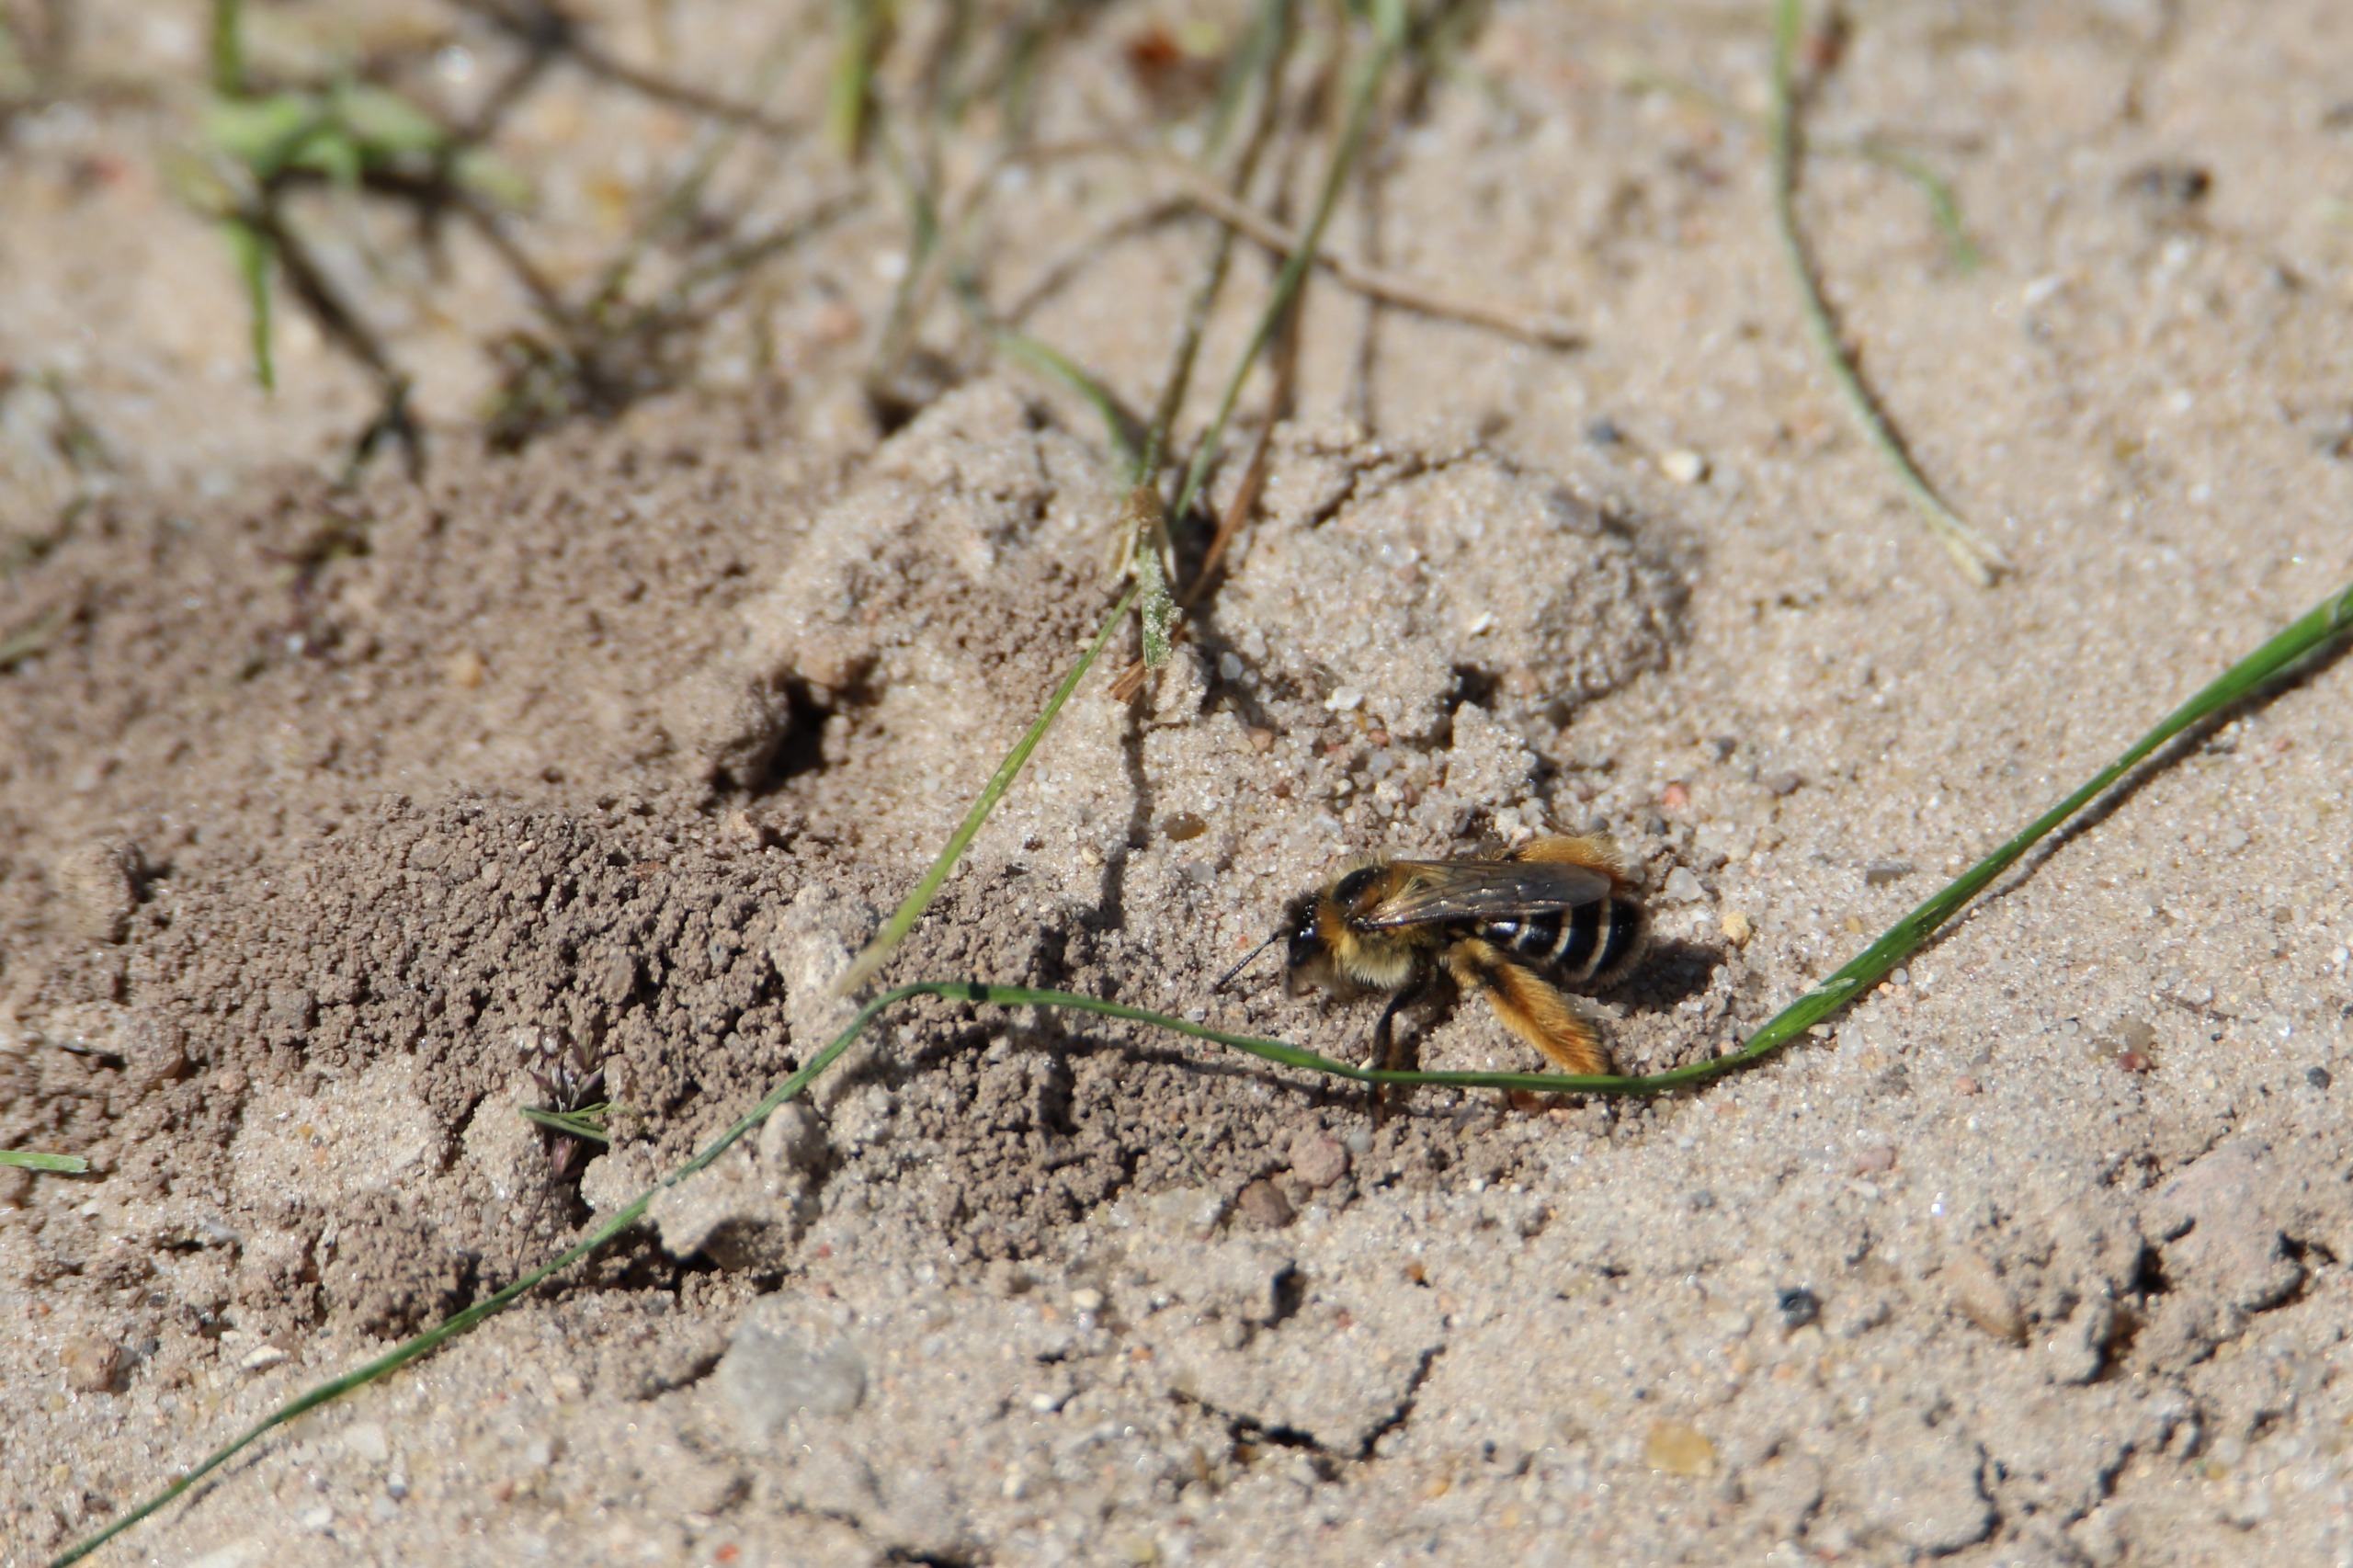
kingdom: Animalia
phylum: Arthropoda
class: Insecta
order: Hymenoptera
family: Melittidae
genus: Dasypoda
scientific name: Dasypoda hirtipes
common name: Pragtbuksebi
